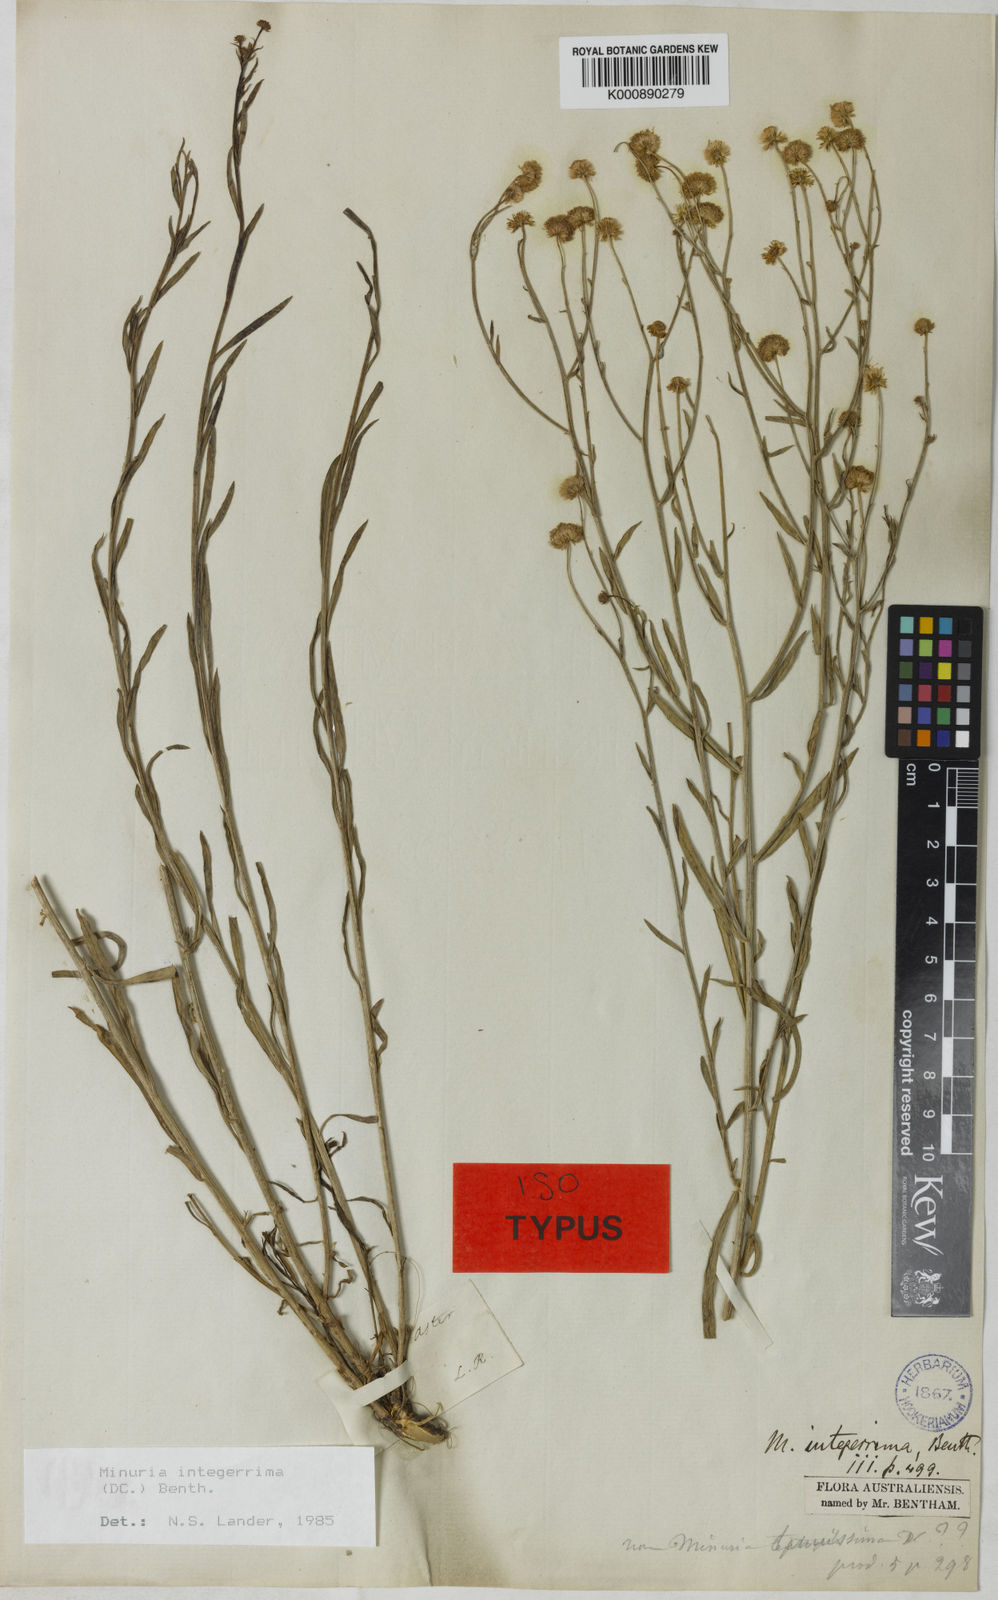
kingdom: Plantae
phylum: Tracheophyta
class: Magnoliopsida
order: Asterales
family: Asteraceae
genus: Minuria
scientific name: Minuria integerrima
